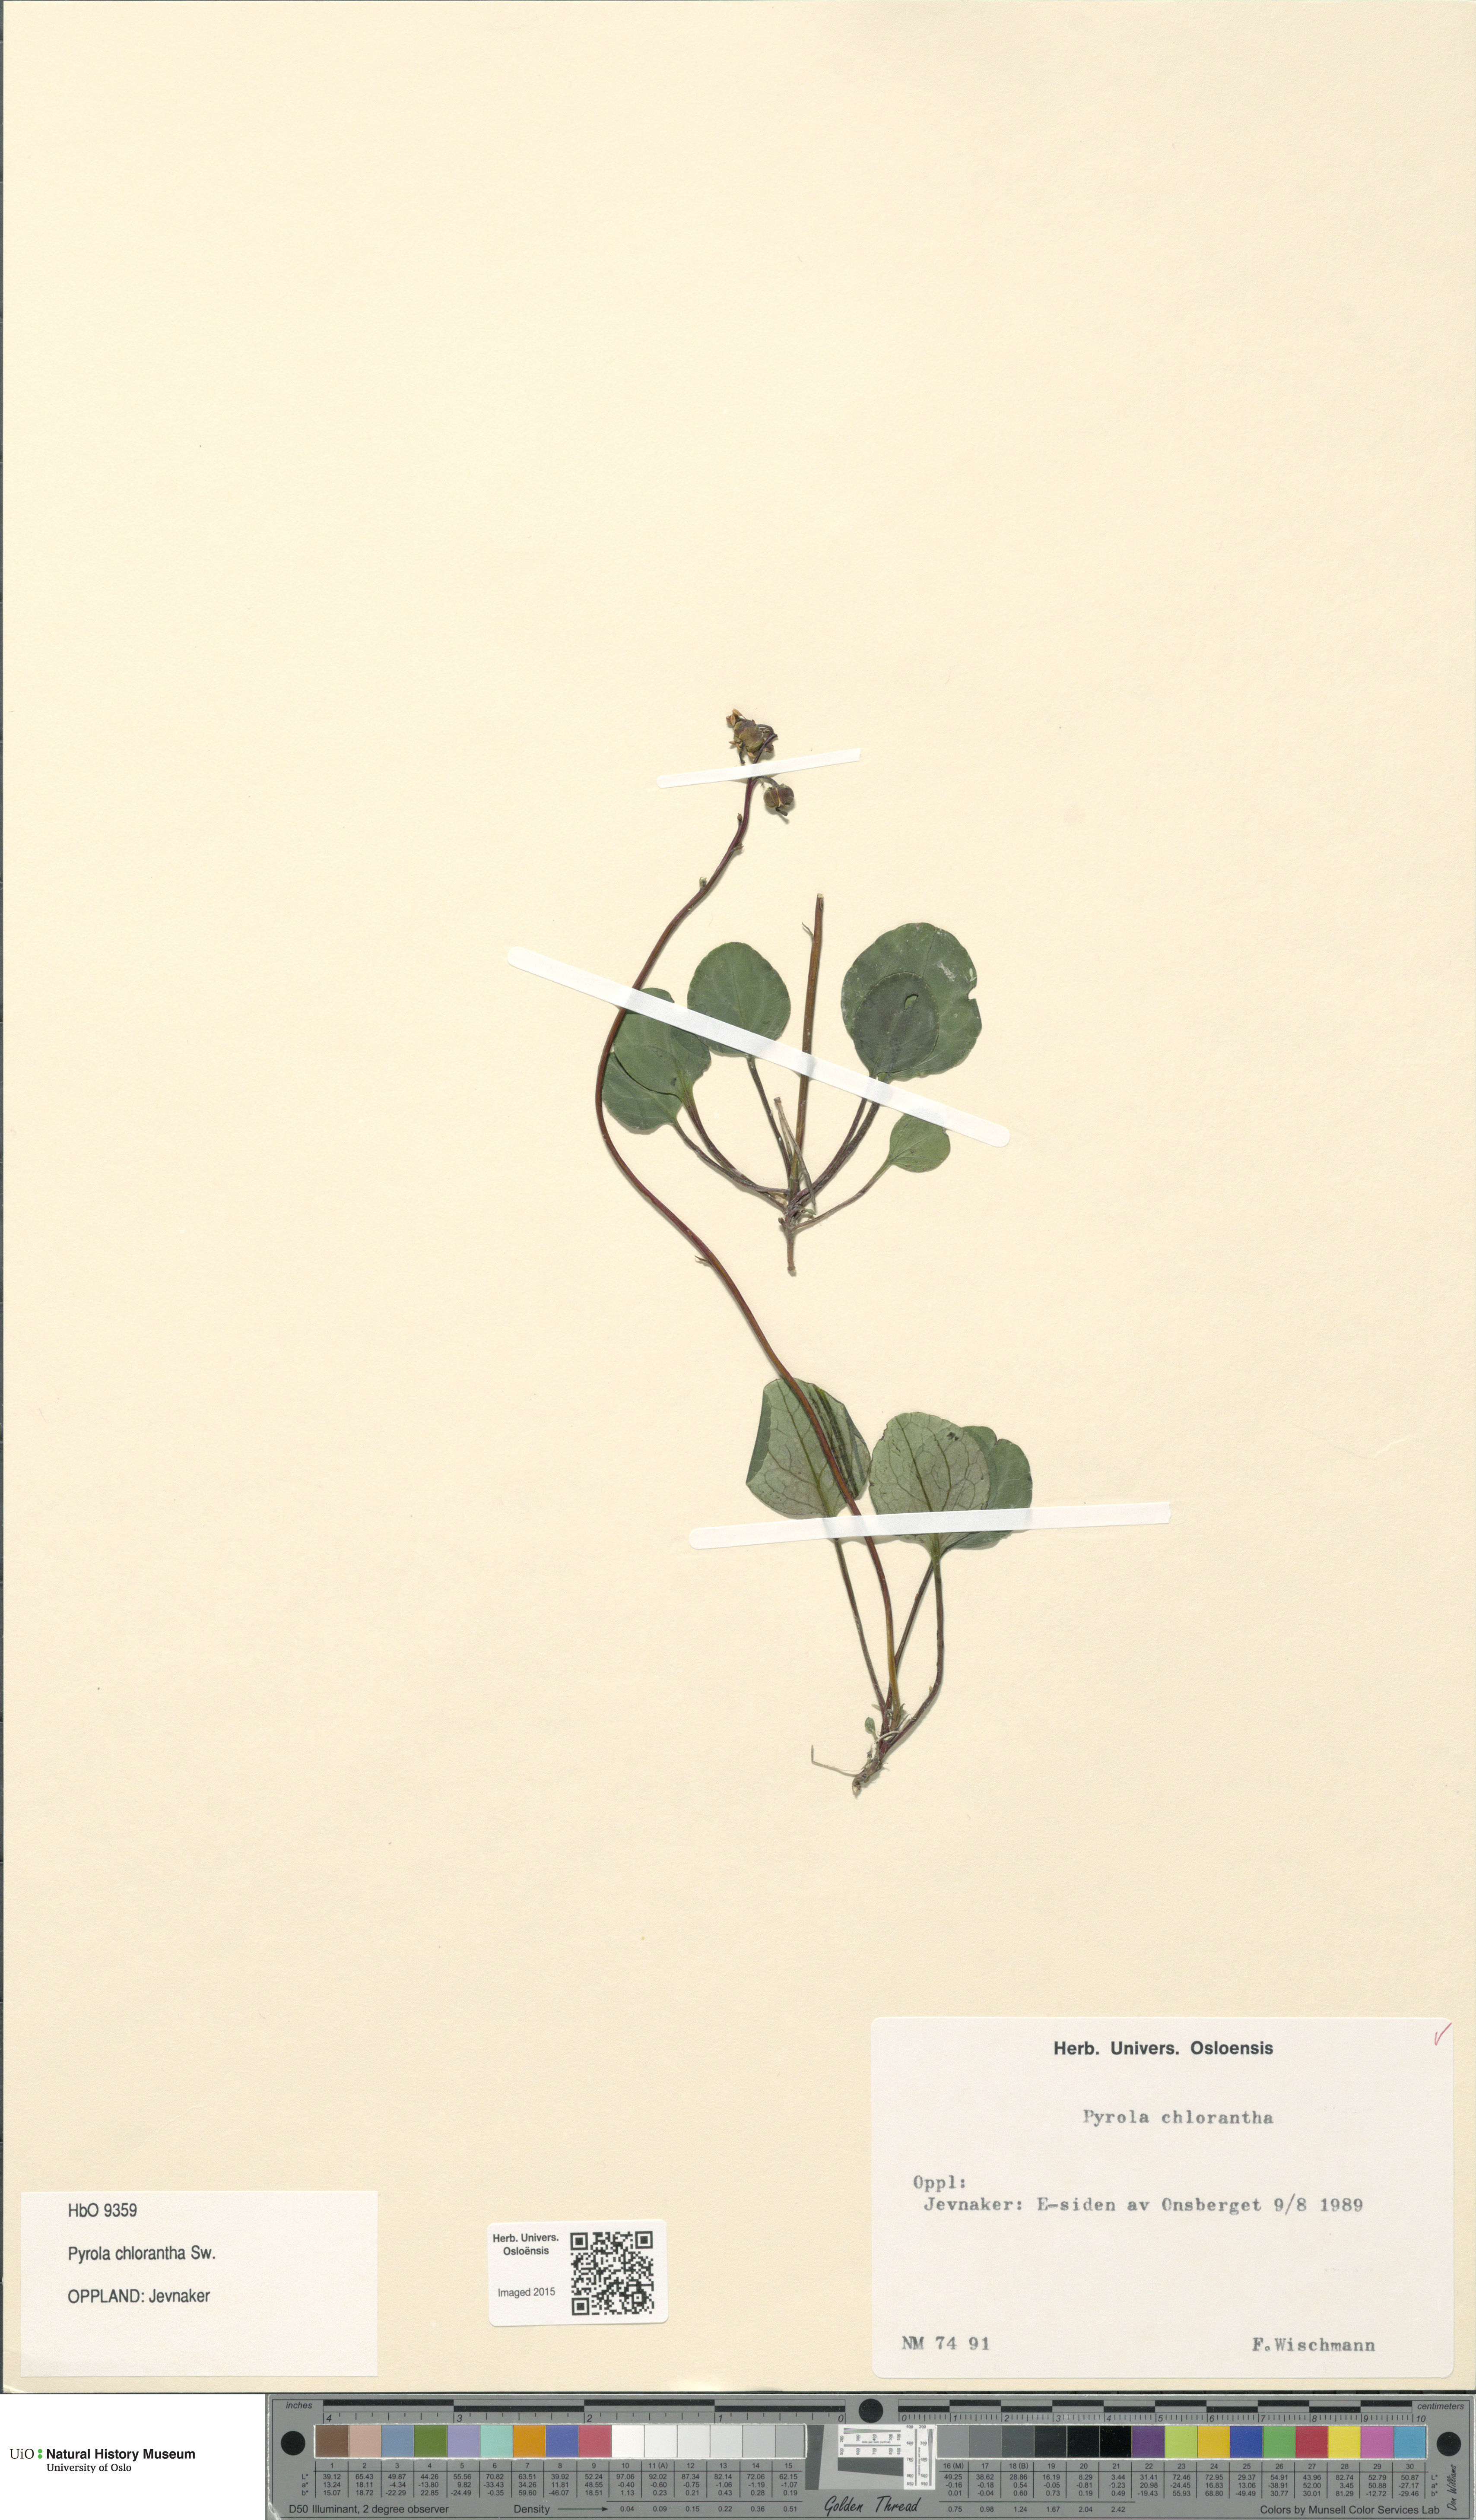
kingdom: Plantae
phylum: Tracheophyta
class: Magnoliopsida
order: Ericales
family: Ericaceae
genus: Pyrola
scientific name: Pyrola chlorantha
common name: Green wintergreen
